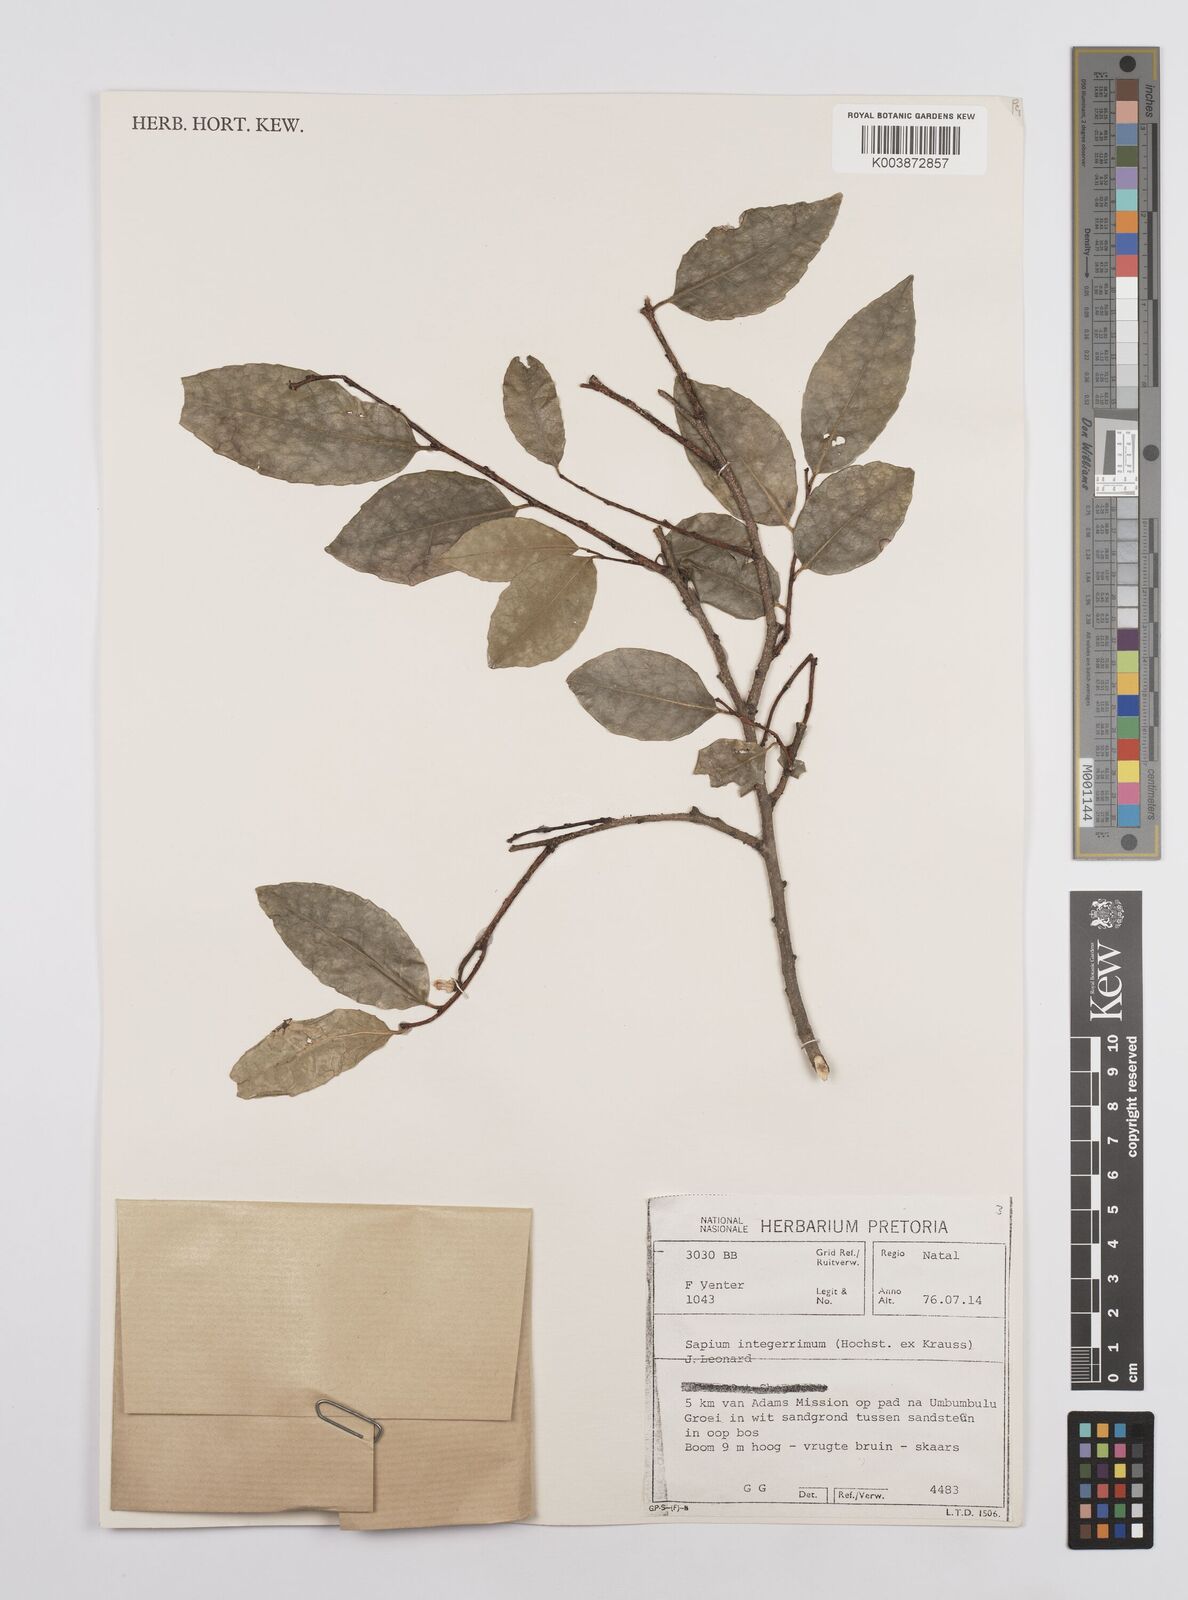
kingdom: Plantae
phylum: Tracheophyta
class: Magnoliopsida
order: Malpighiales
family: Euphorbiaceae
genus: Sclerocroton
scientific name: Sclerocroton integerrimus
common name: Duiker berry
